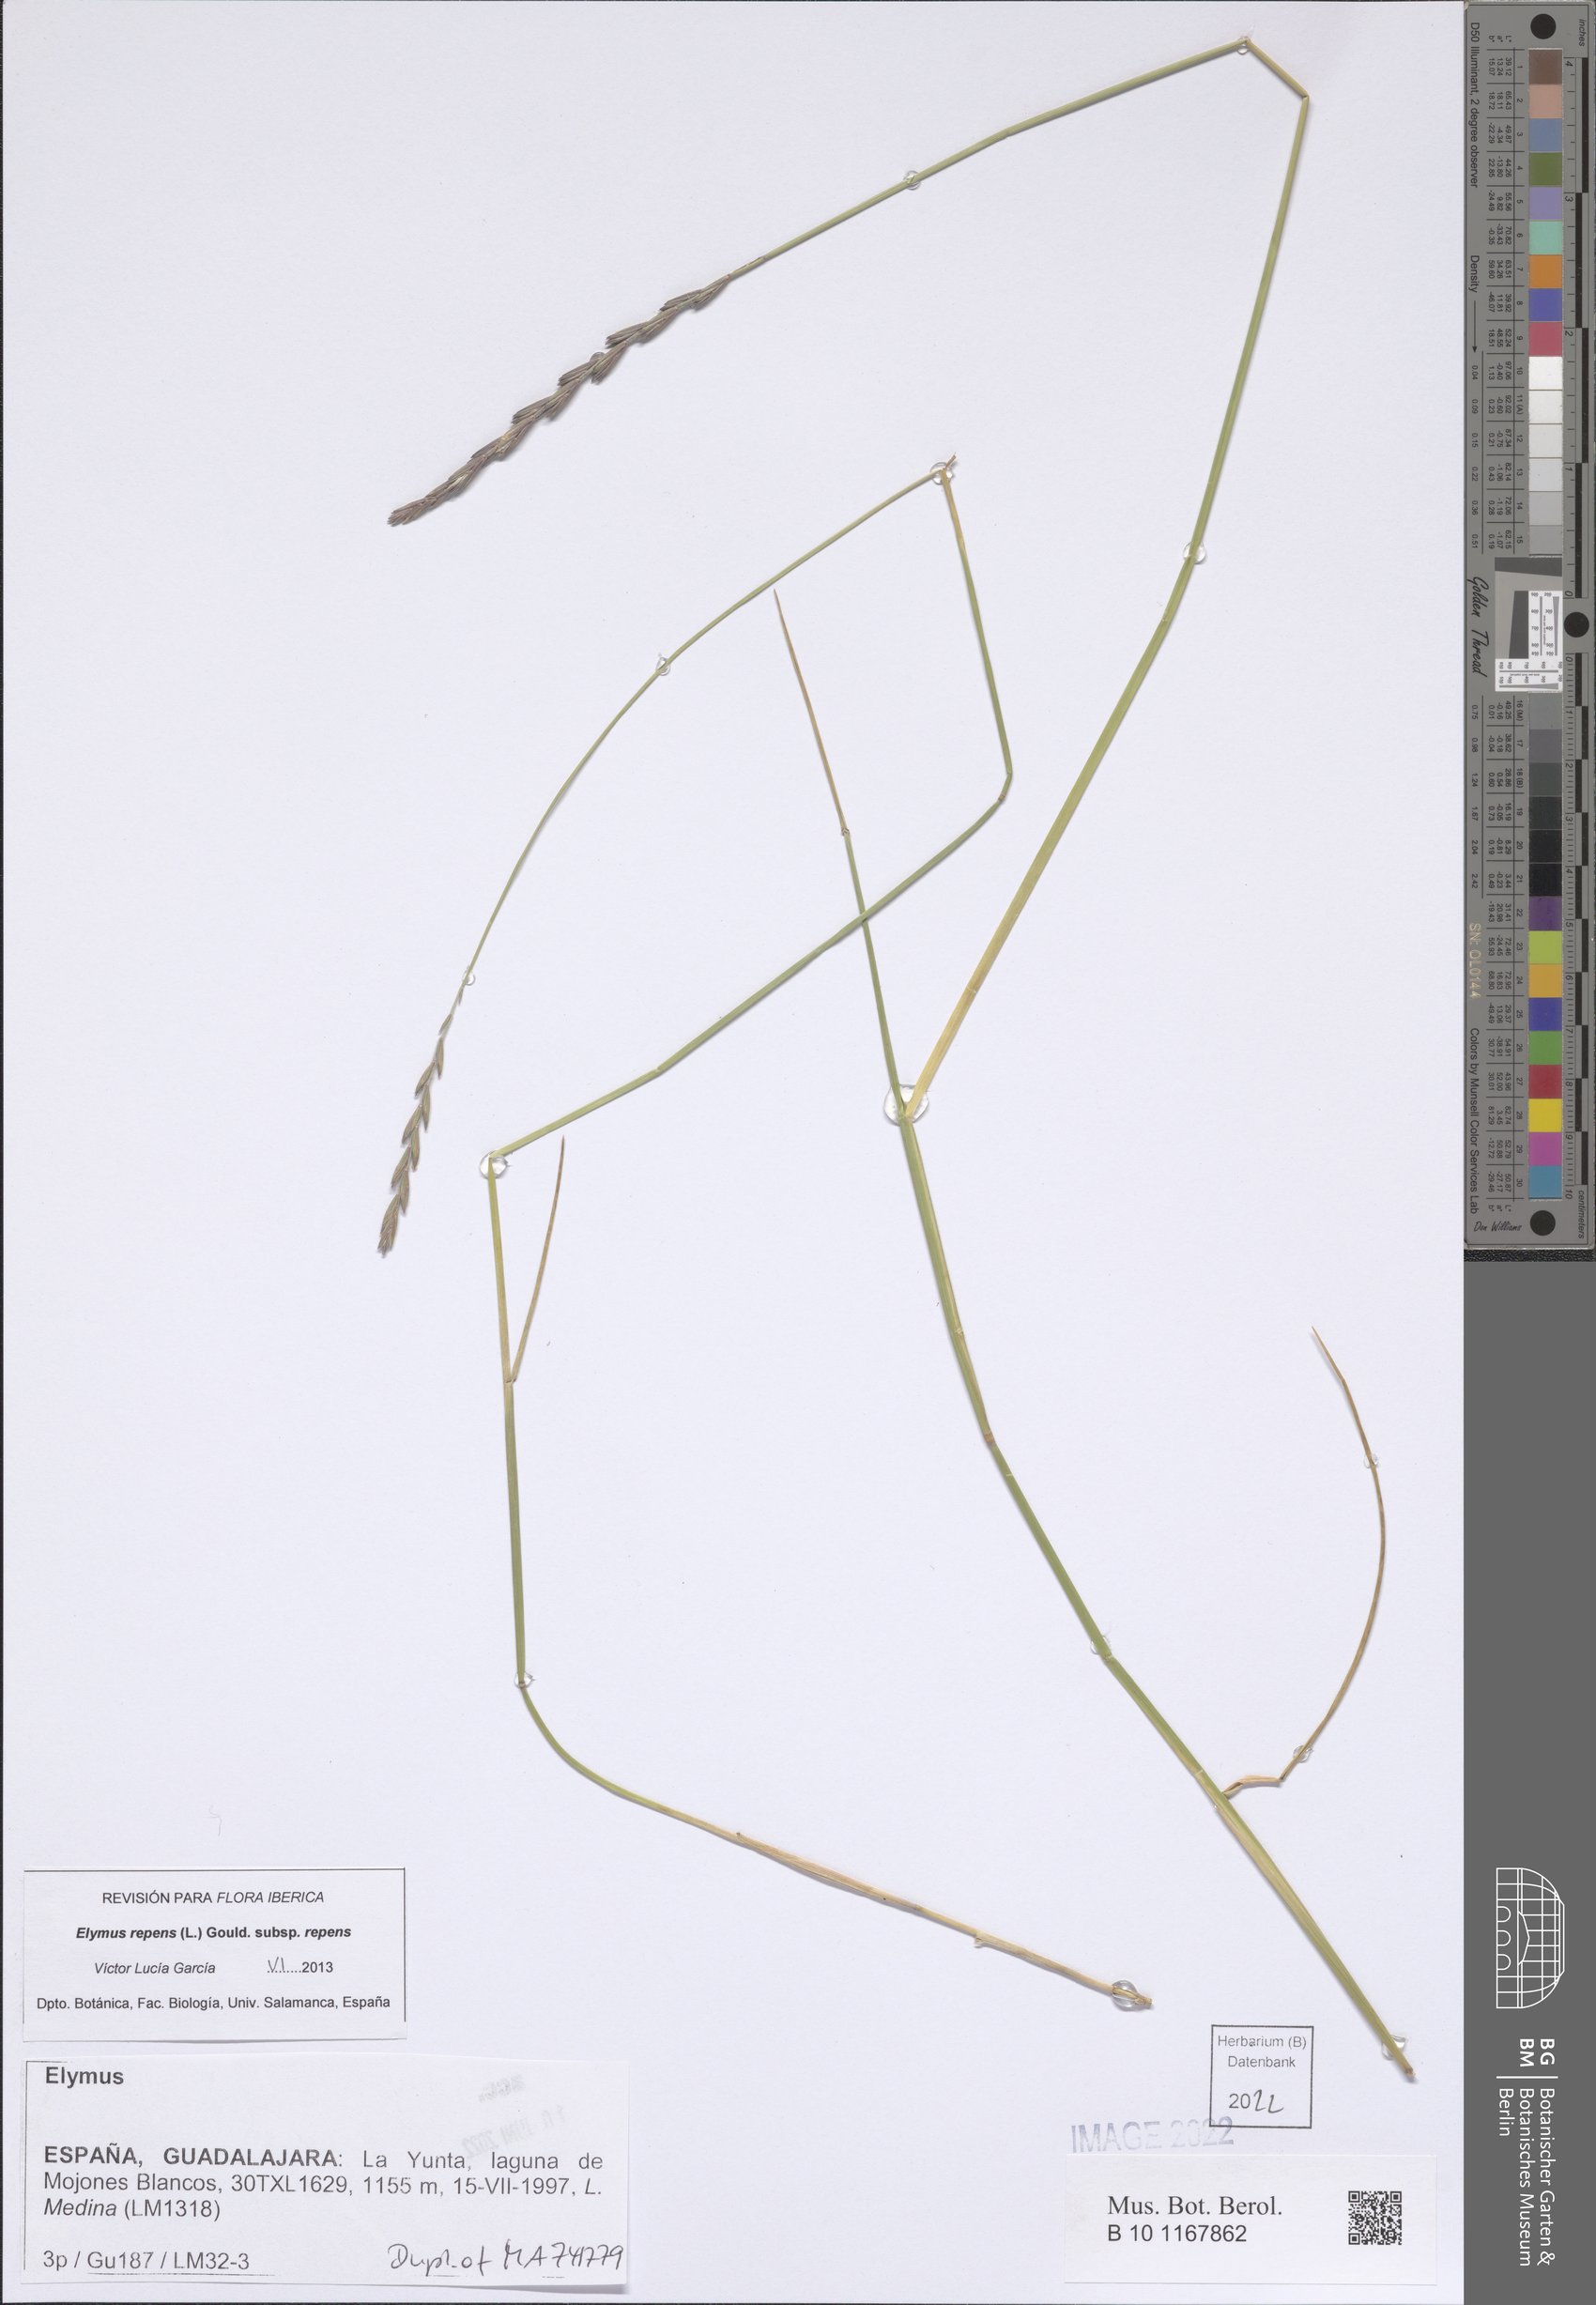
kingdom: Plantae
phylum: Tracheophyta
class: Liliopsida
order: Poales
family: Poaceae
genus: Elymus
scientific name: Elymus repens
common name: Quackgrass
